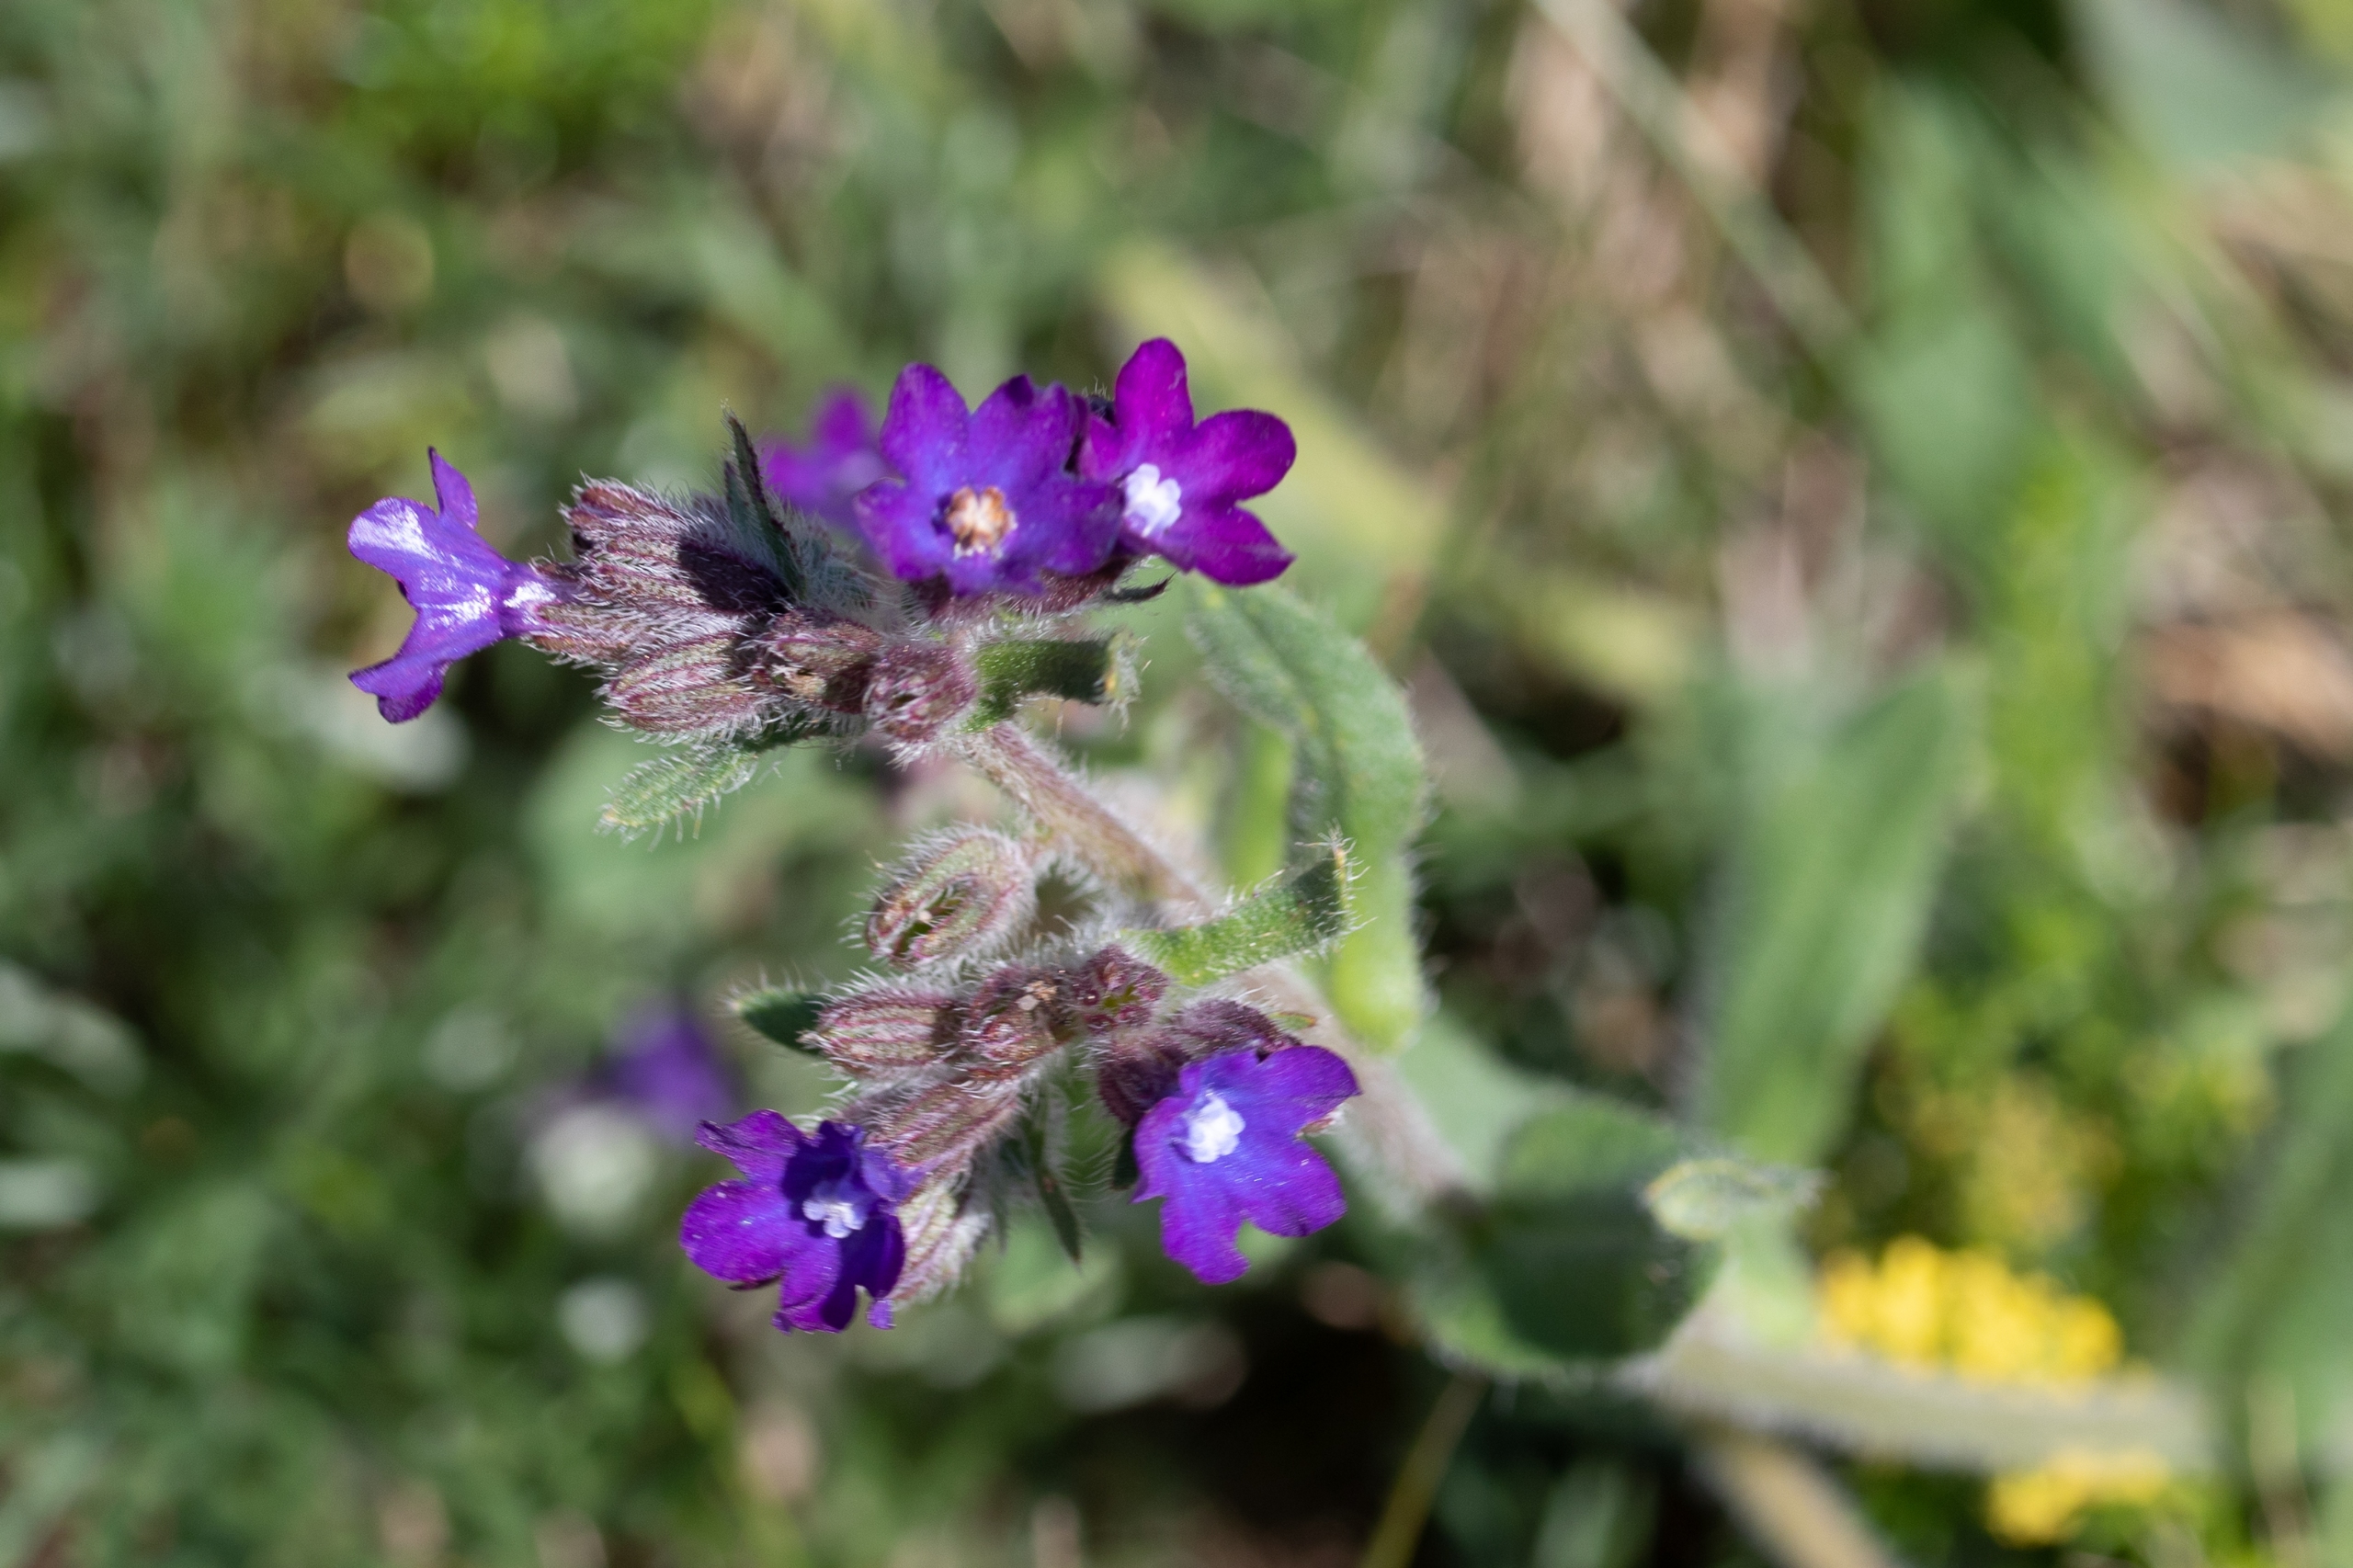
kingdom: Plantae
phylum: Tracheophyta
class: Magnoliopsida
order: Boraginales
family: Boraginaceae
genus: Anchusa
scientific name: Anchusa officinalis
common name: Læge-oksetunge
